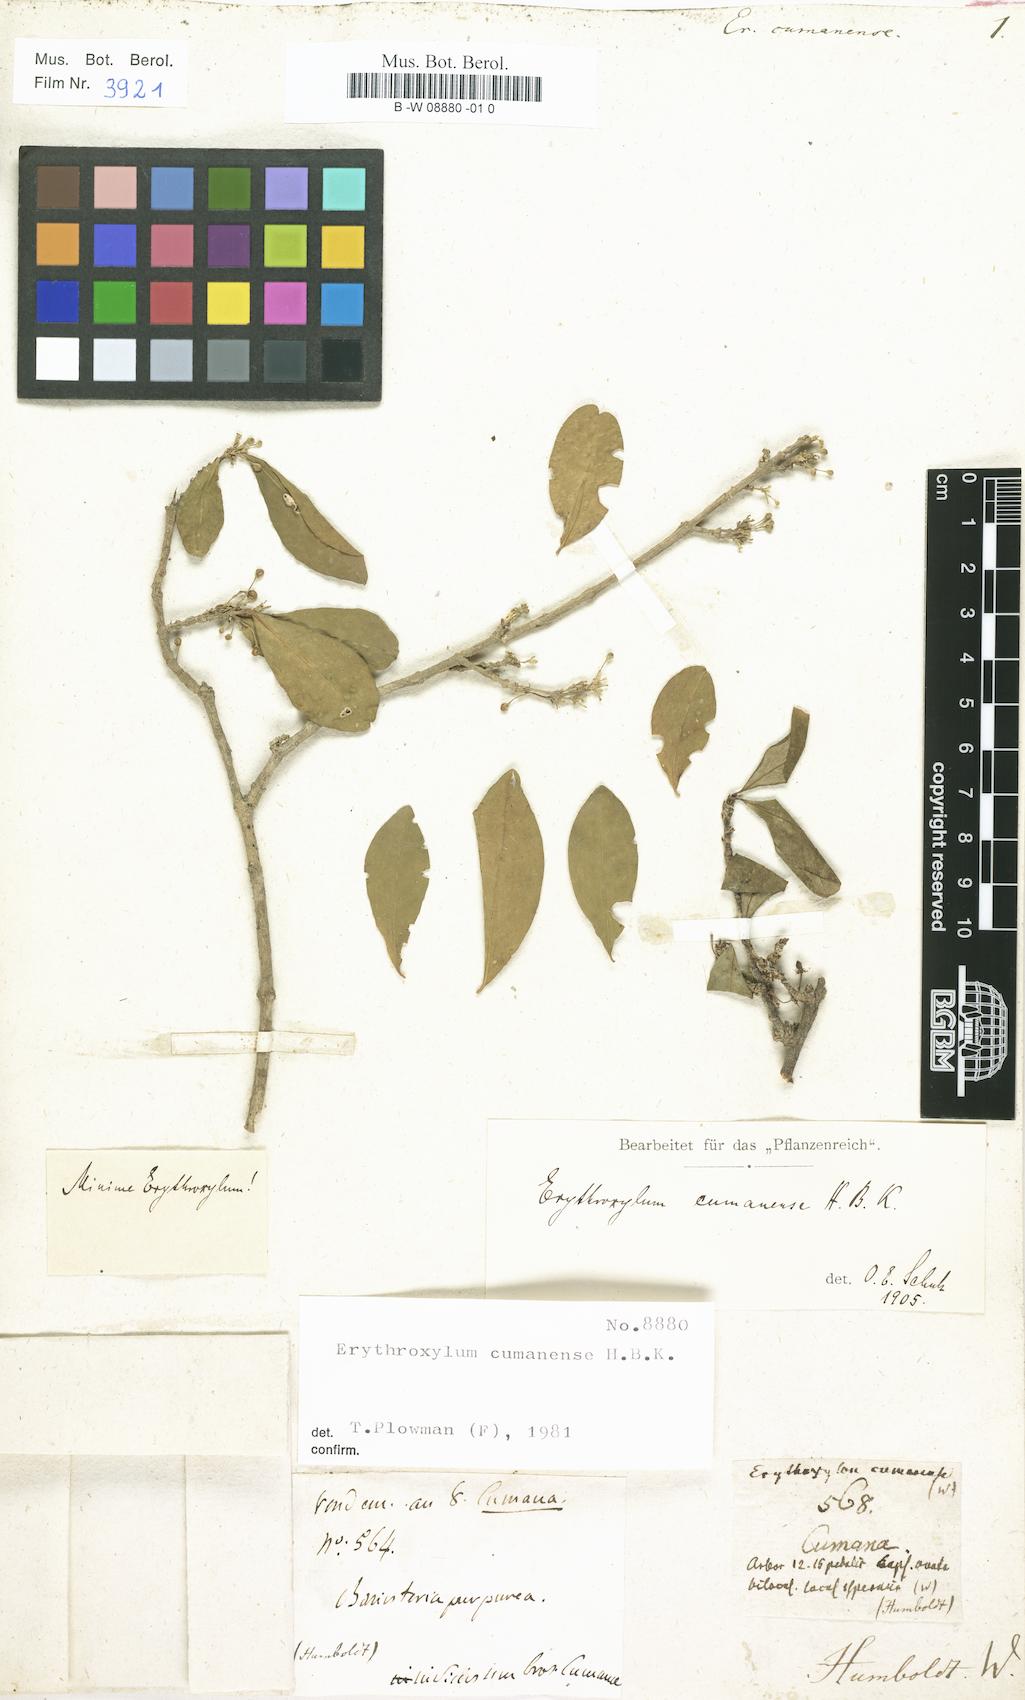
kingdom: Plantae
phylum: Tracheophyta
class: Magnoliopsida
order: Malpighiales
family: Erythroxylaceae
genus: Erythroxylum
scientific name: Erythroxylum cumanense
